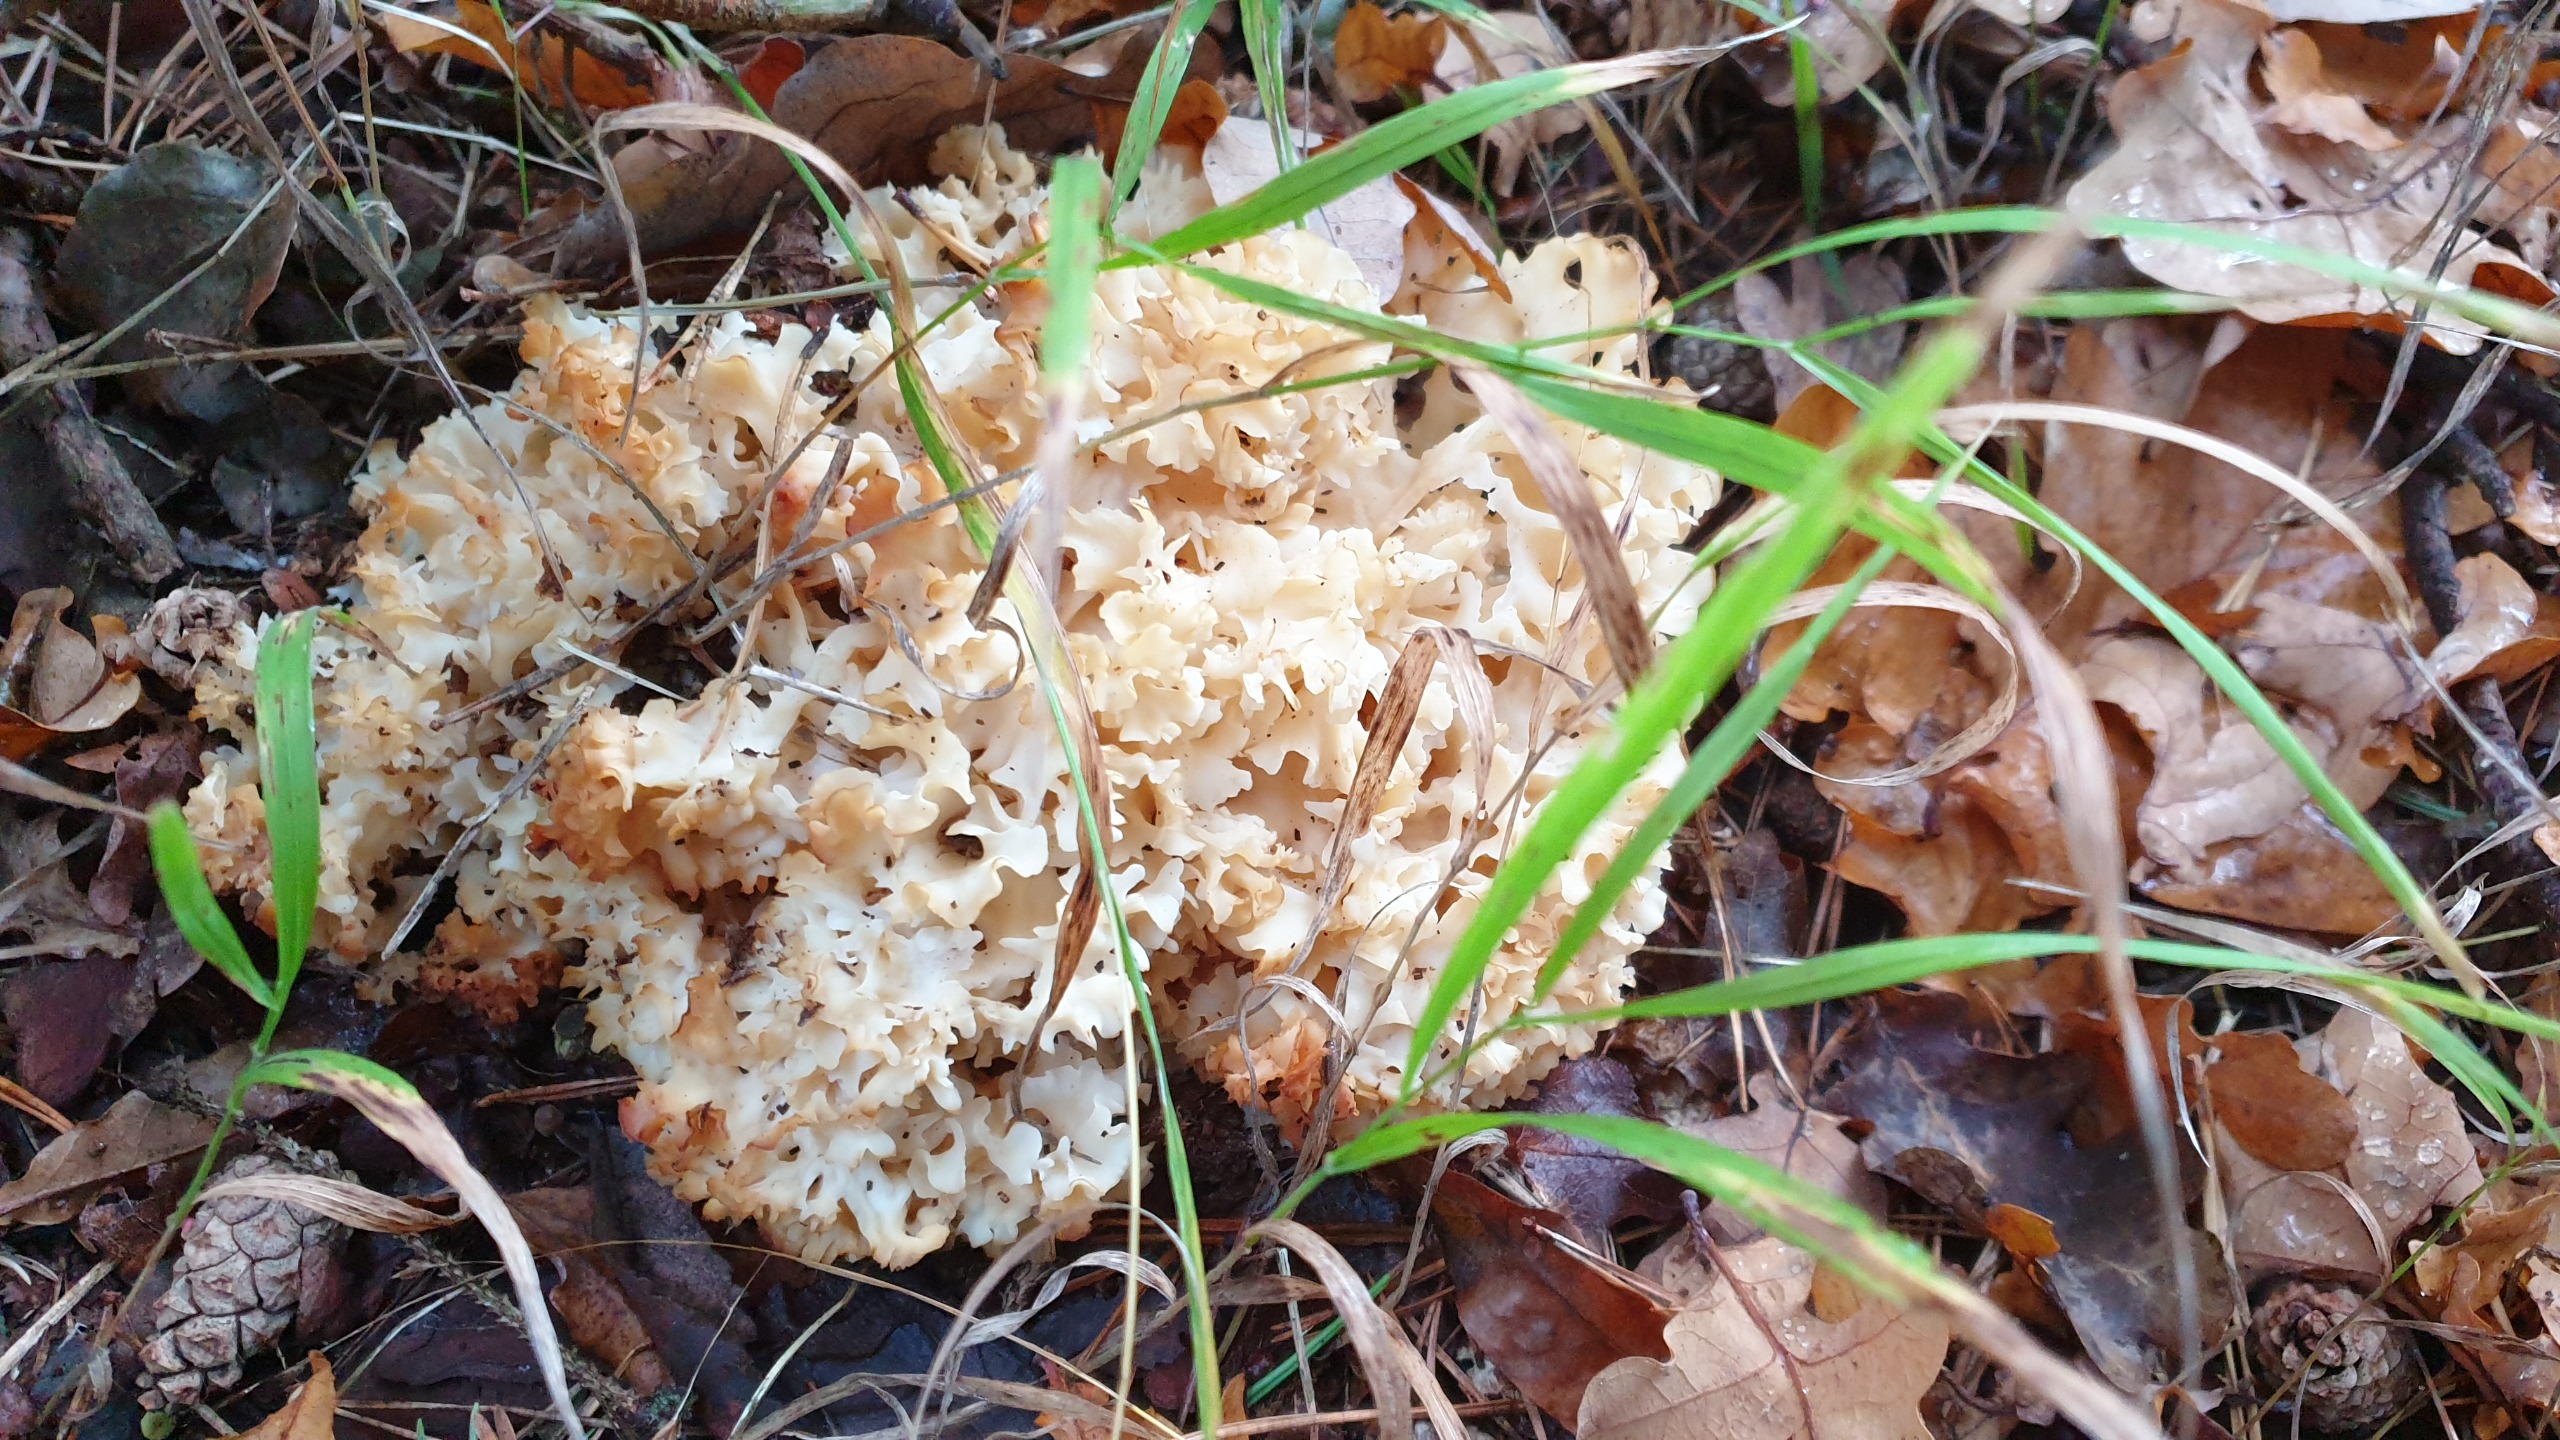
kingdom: Fungi
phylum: Basidiomycota
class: Agaricomycetes
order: Polyporales
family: Sparassidaceae
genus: Sparassis
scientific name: Sparassis crispa
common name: Kruset blomkålssvamp
